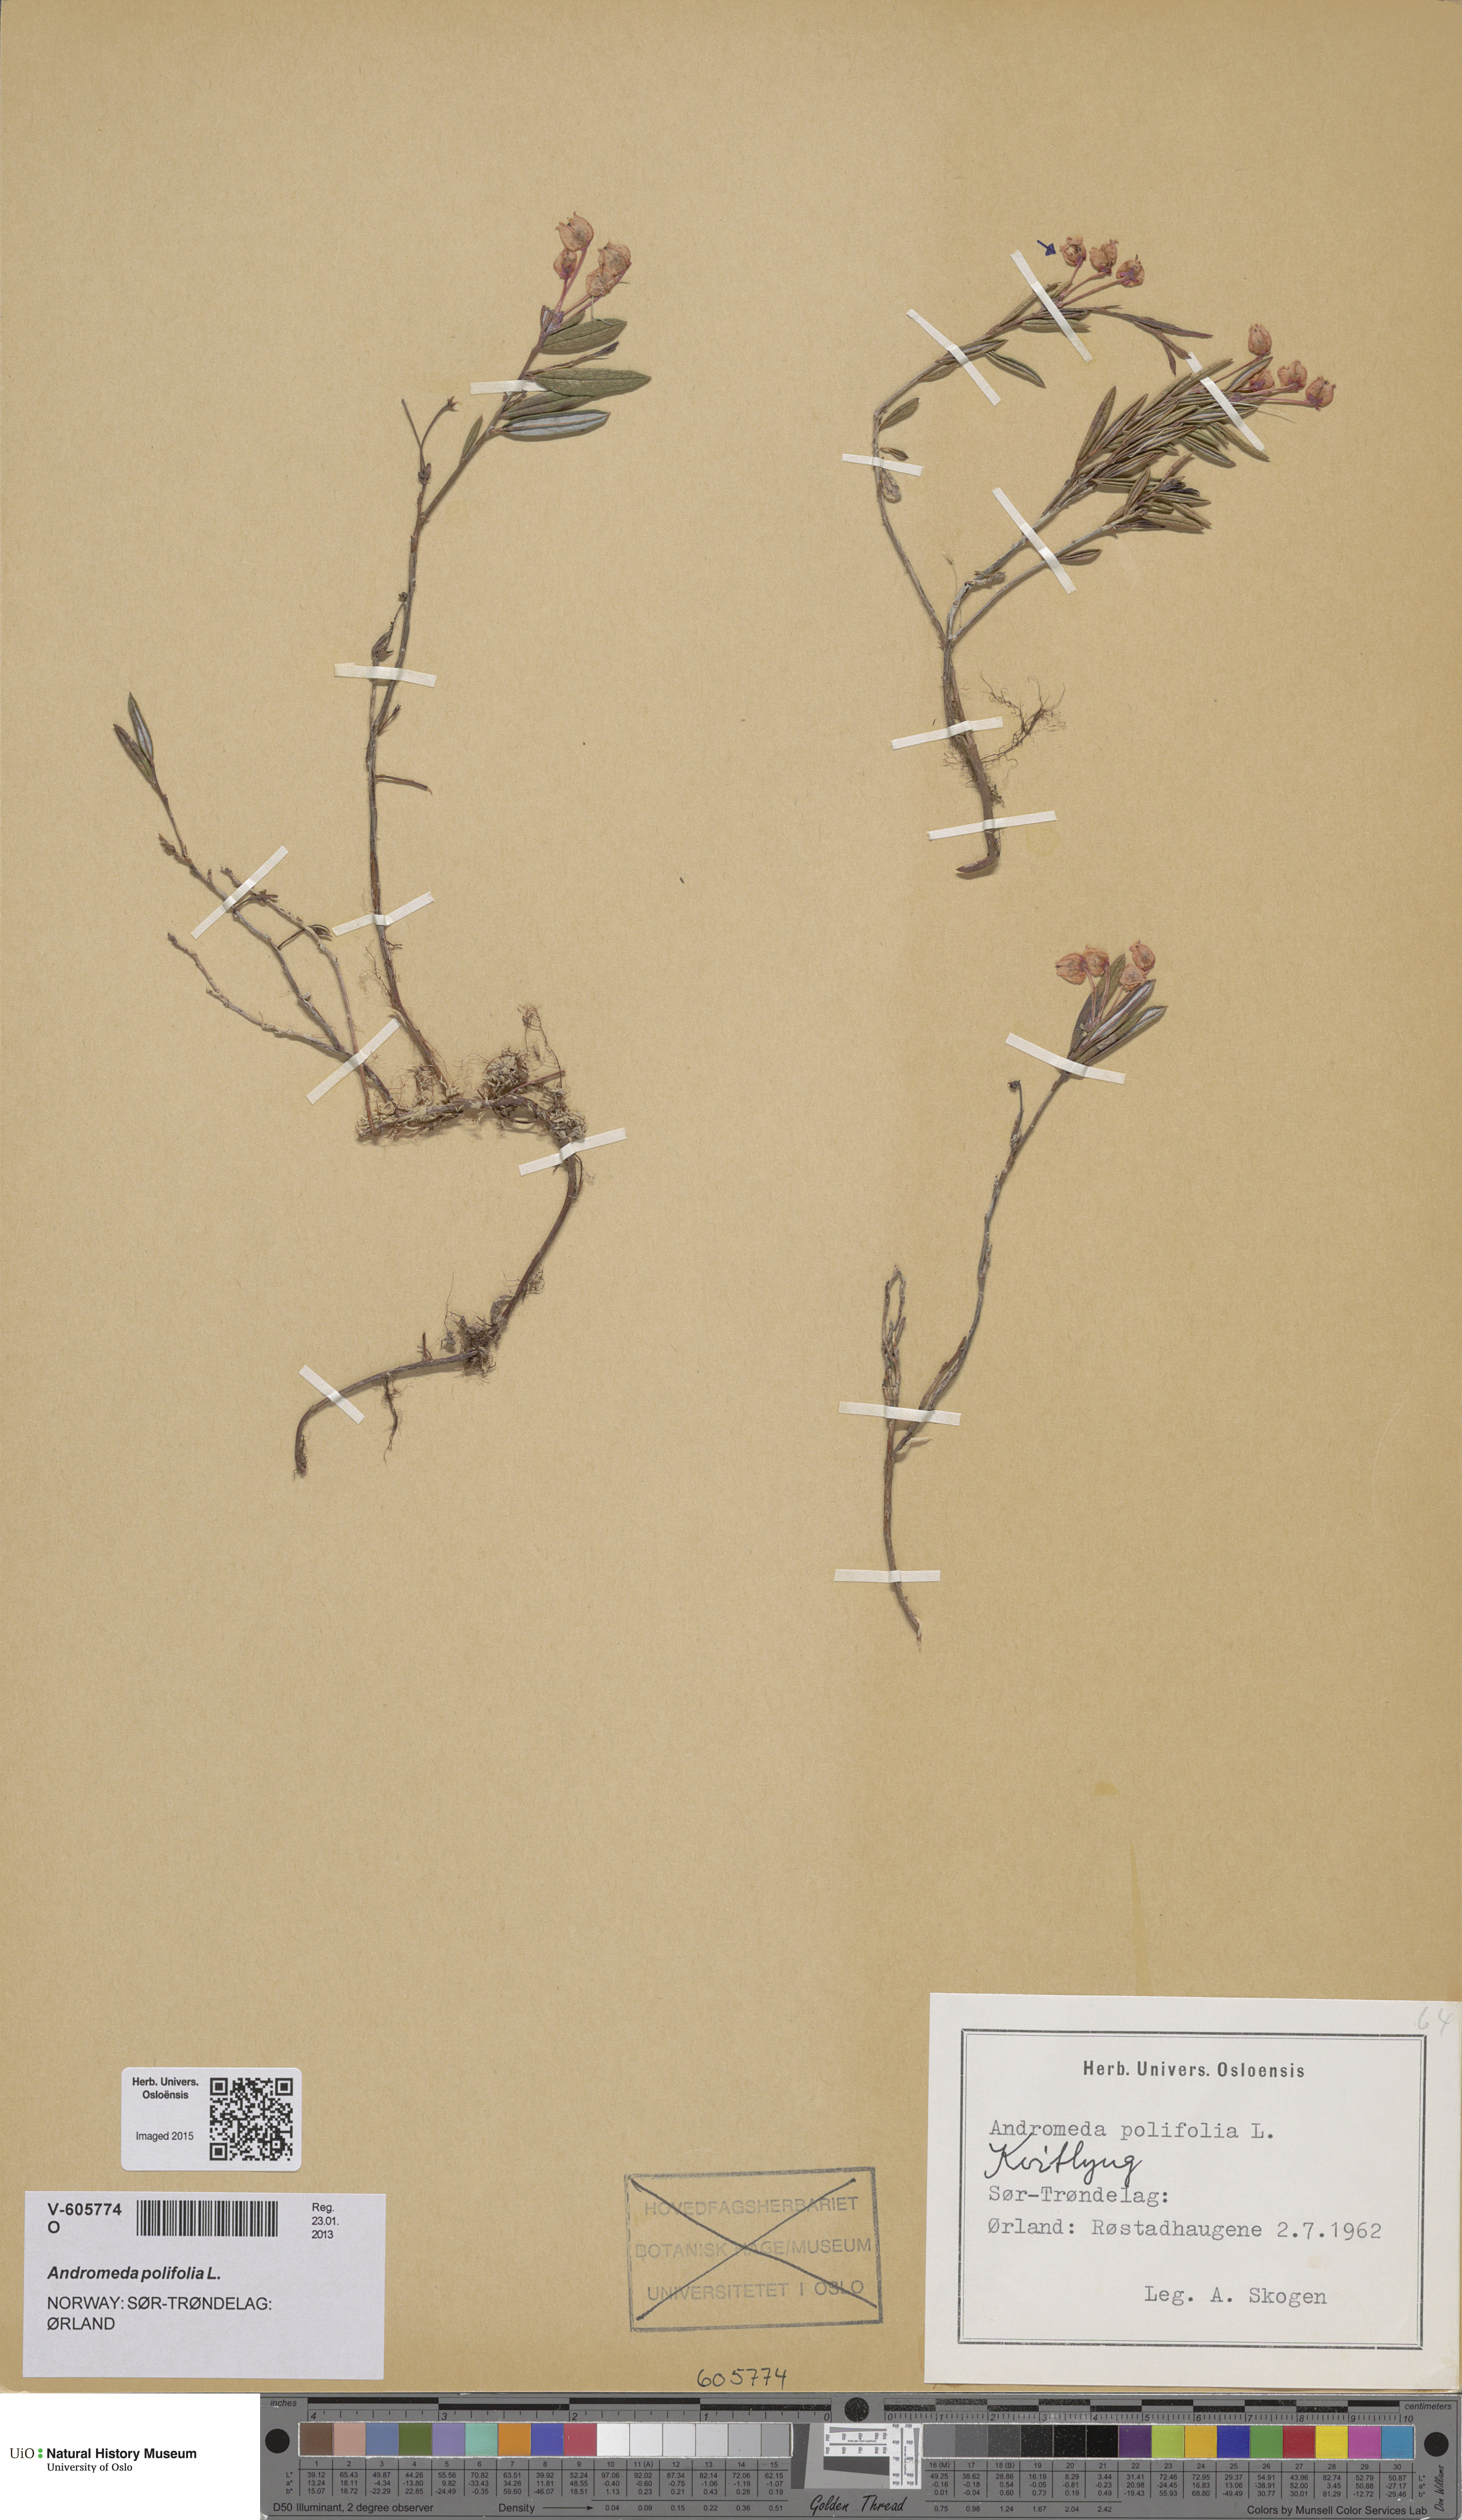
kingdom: Plantae
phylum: Tracheophyta
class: Magnoliopsida
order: Ericales
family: Ericaceae
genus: Andromeda
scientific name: Andromeda polifolia
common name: Bog-rosemary
